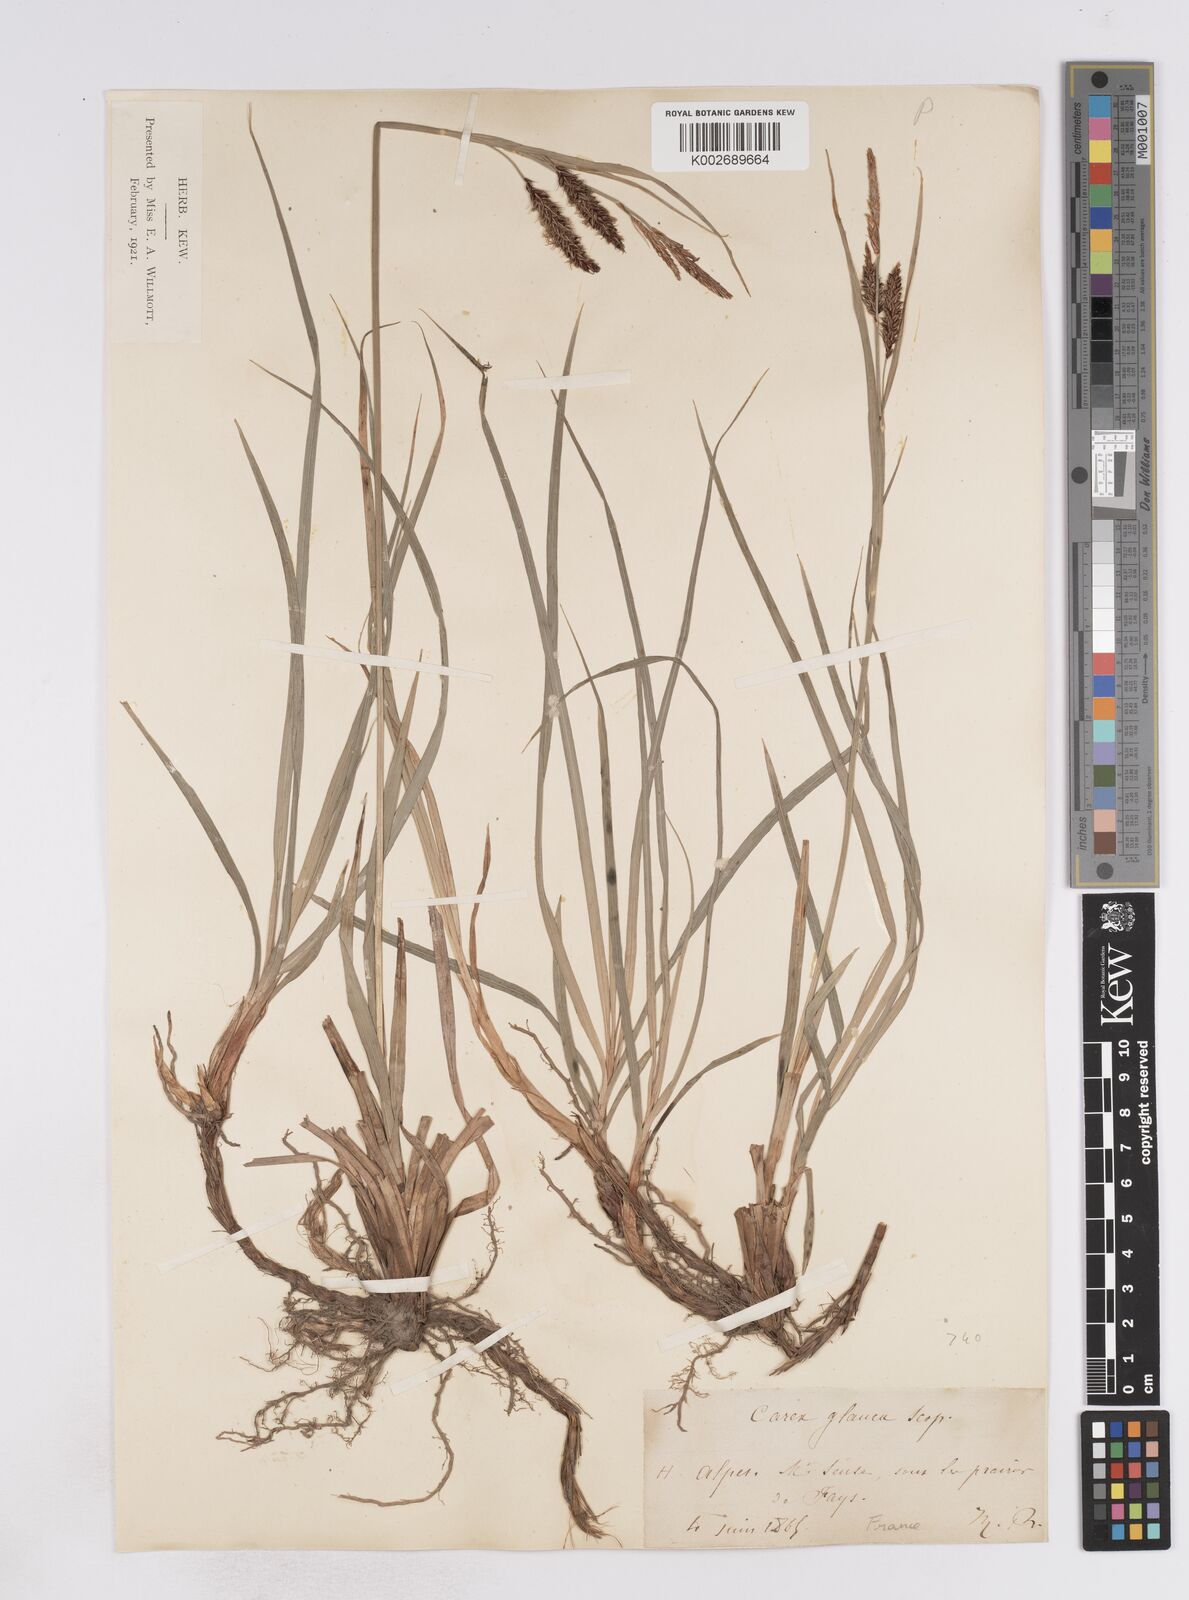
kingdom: Plantae
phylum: Tracheophyta
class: Liliopsida
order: Poales
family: Cyperaceae
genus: Carex
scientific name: Carex flacca
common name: Glaucous sedge
